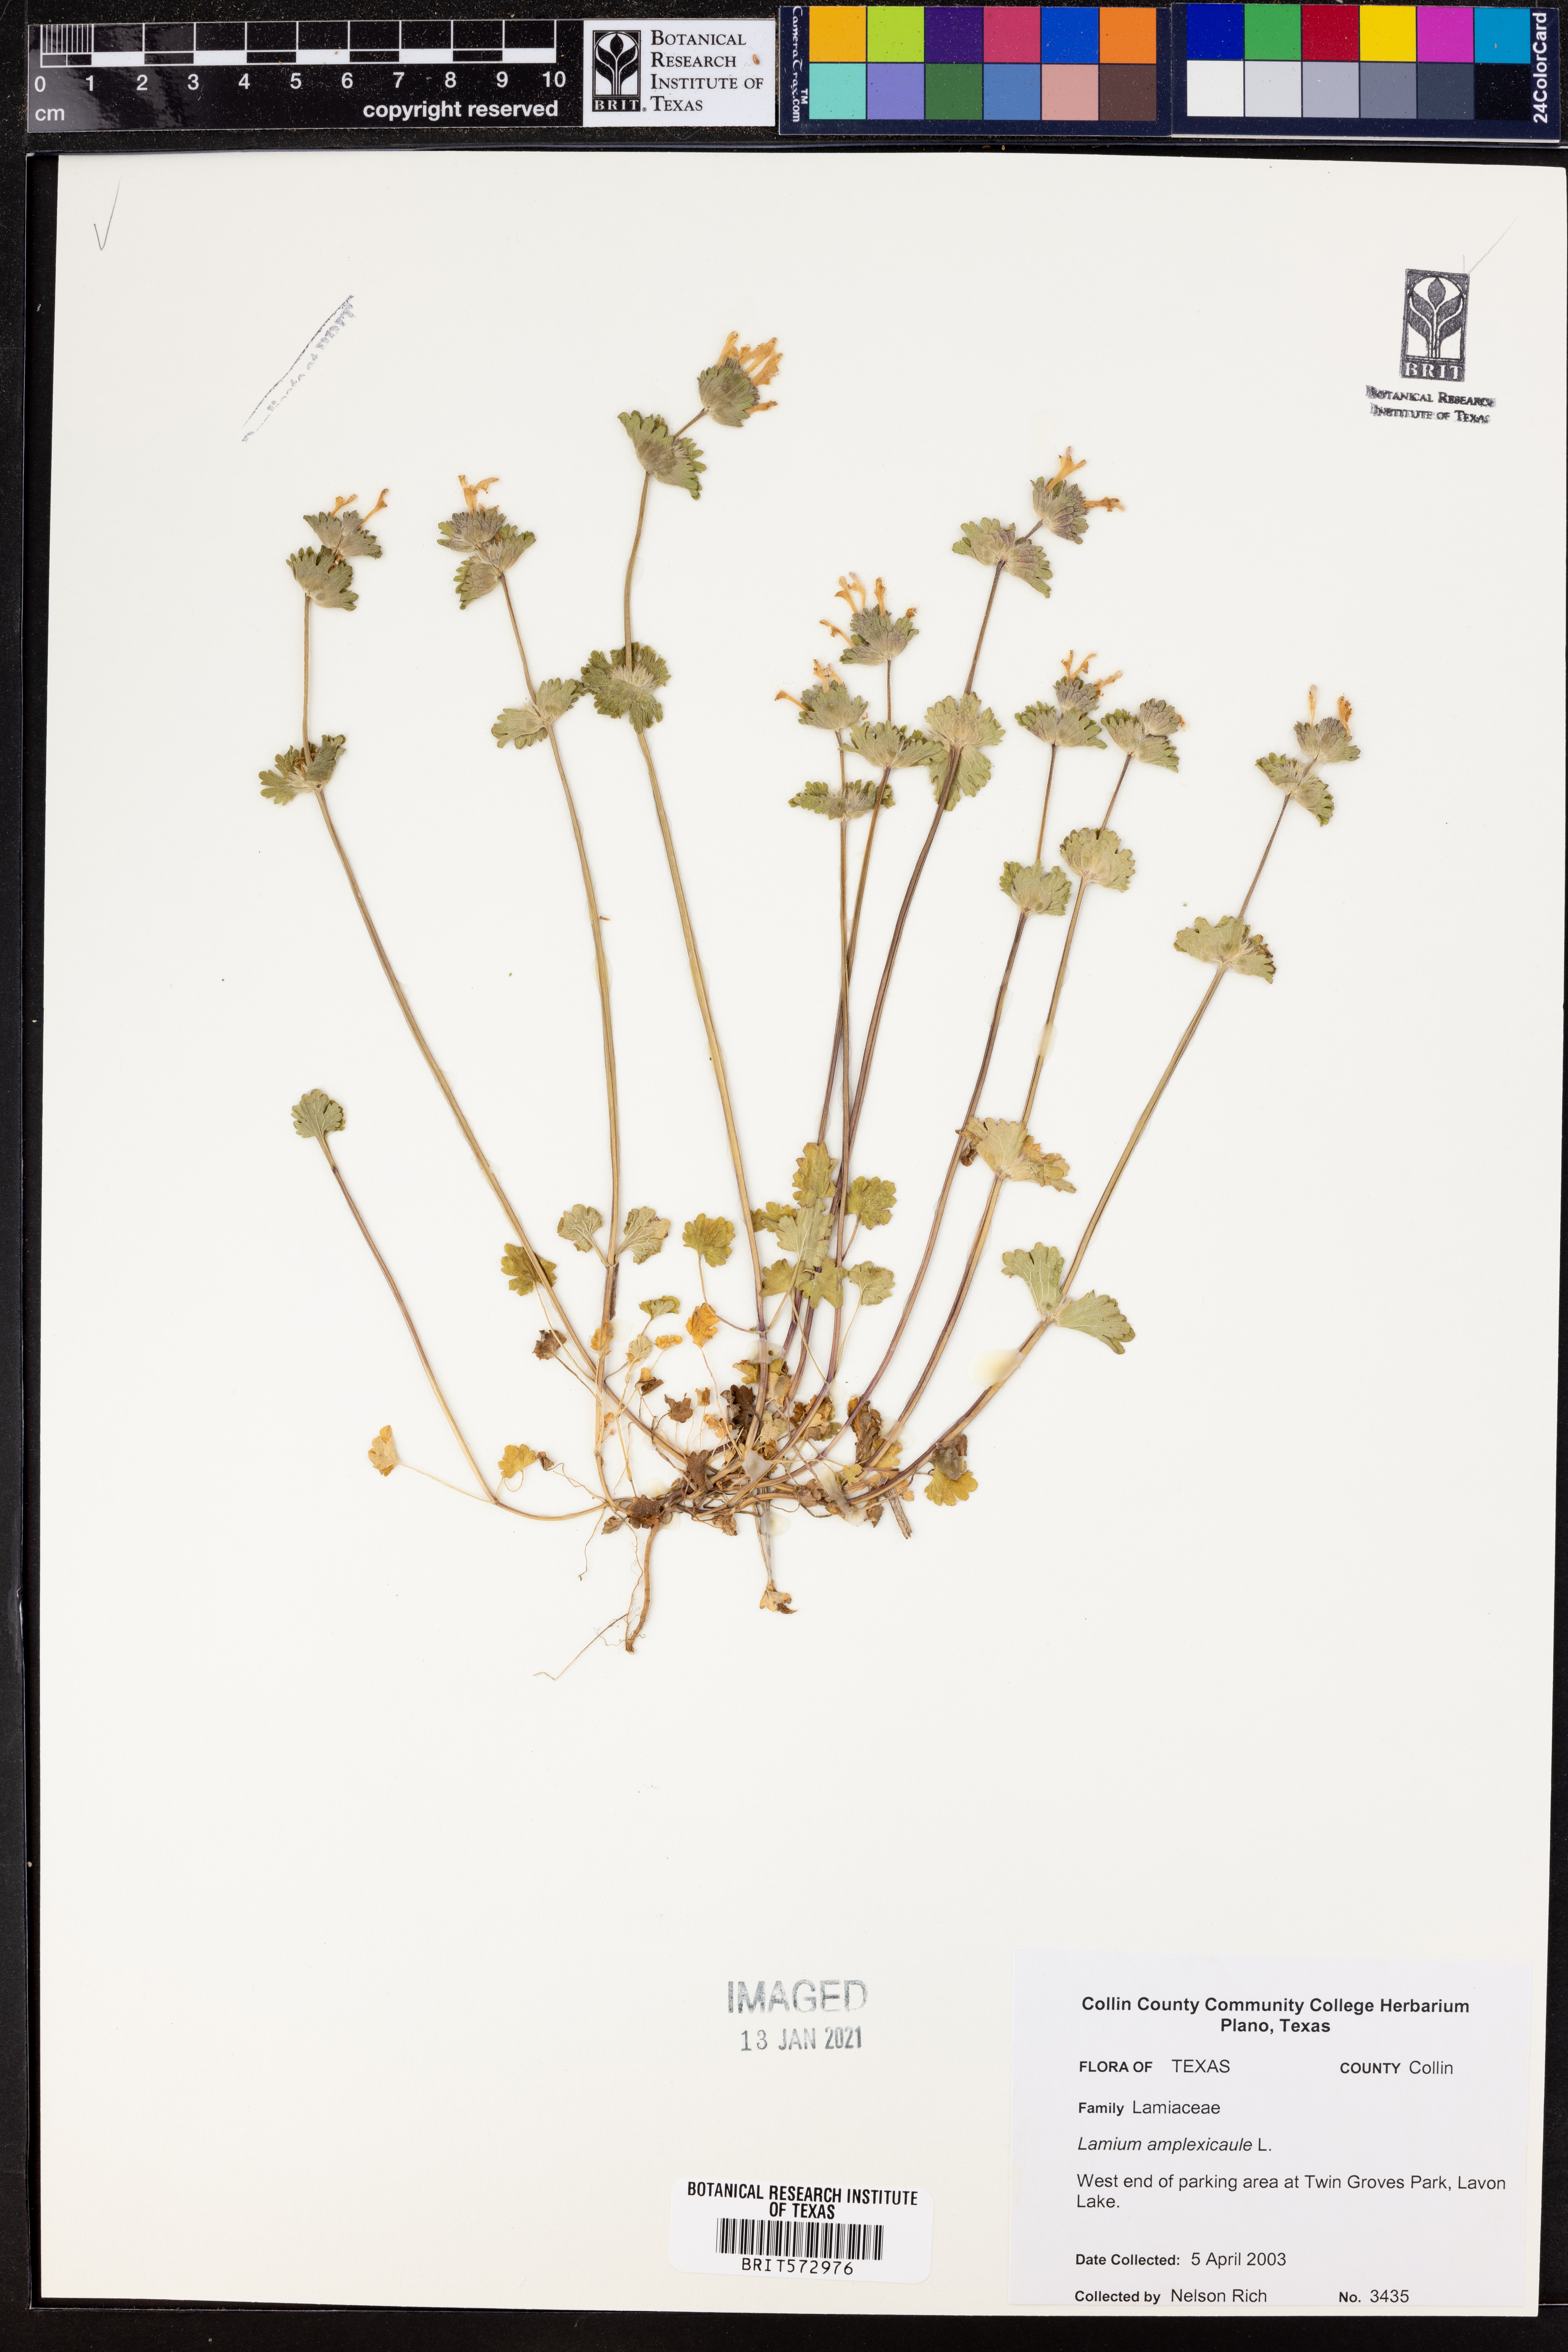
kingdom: Plantae
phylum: Tracheophyta
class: Magnoliopsida
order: Lamiales
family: Lamiaceae
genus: Lamium
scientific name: Lamium amplexicaule
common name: Henbit dead-nettle
